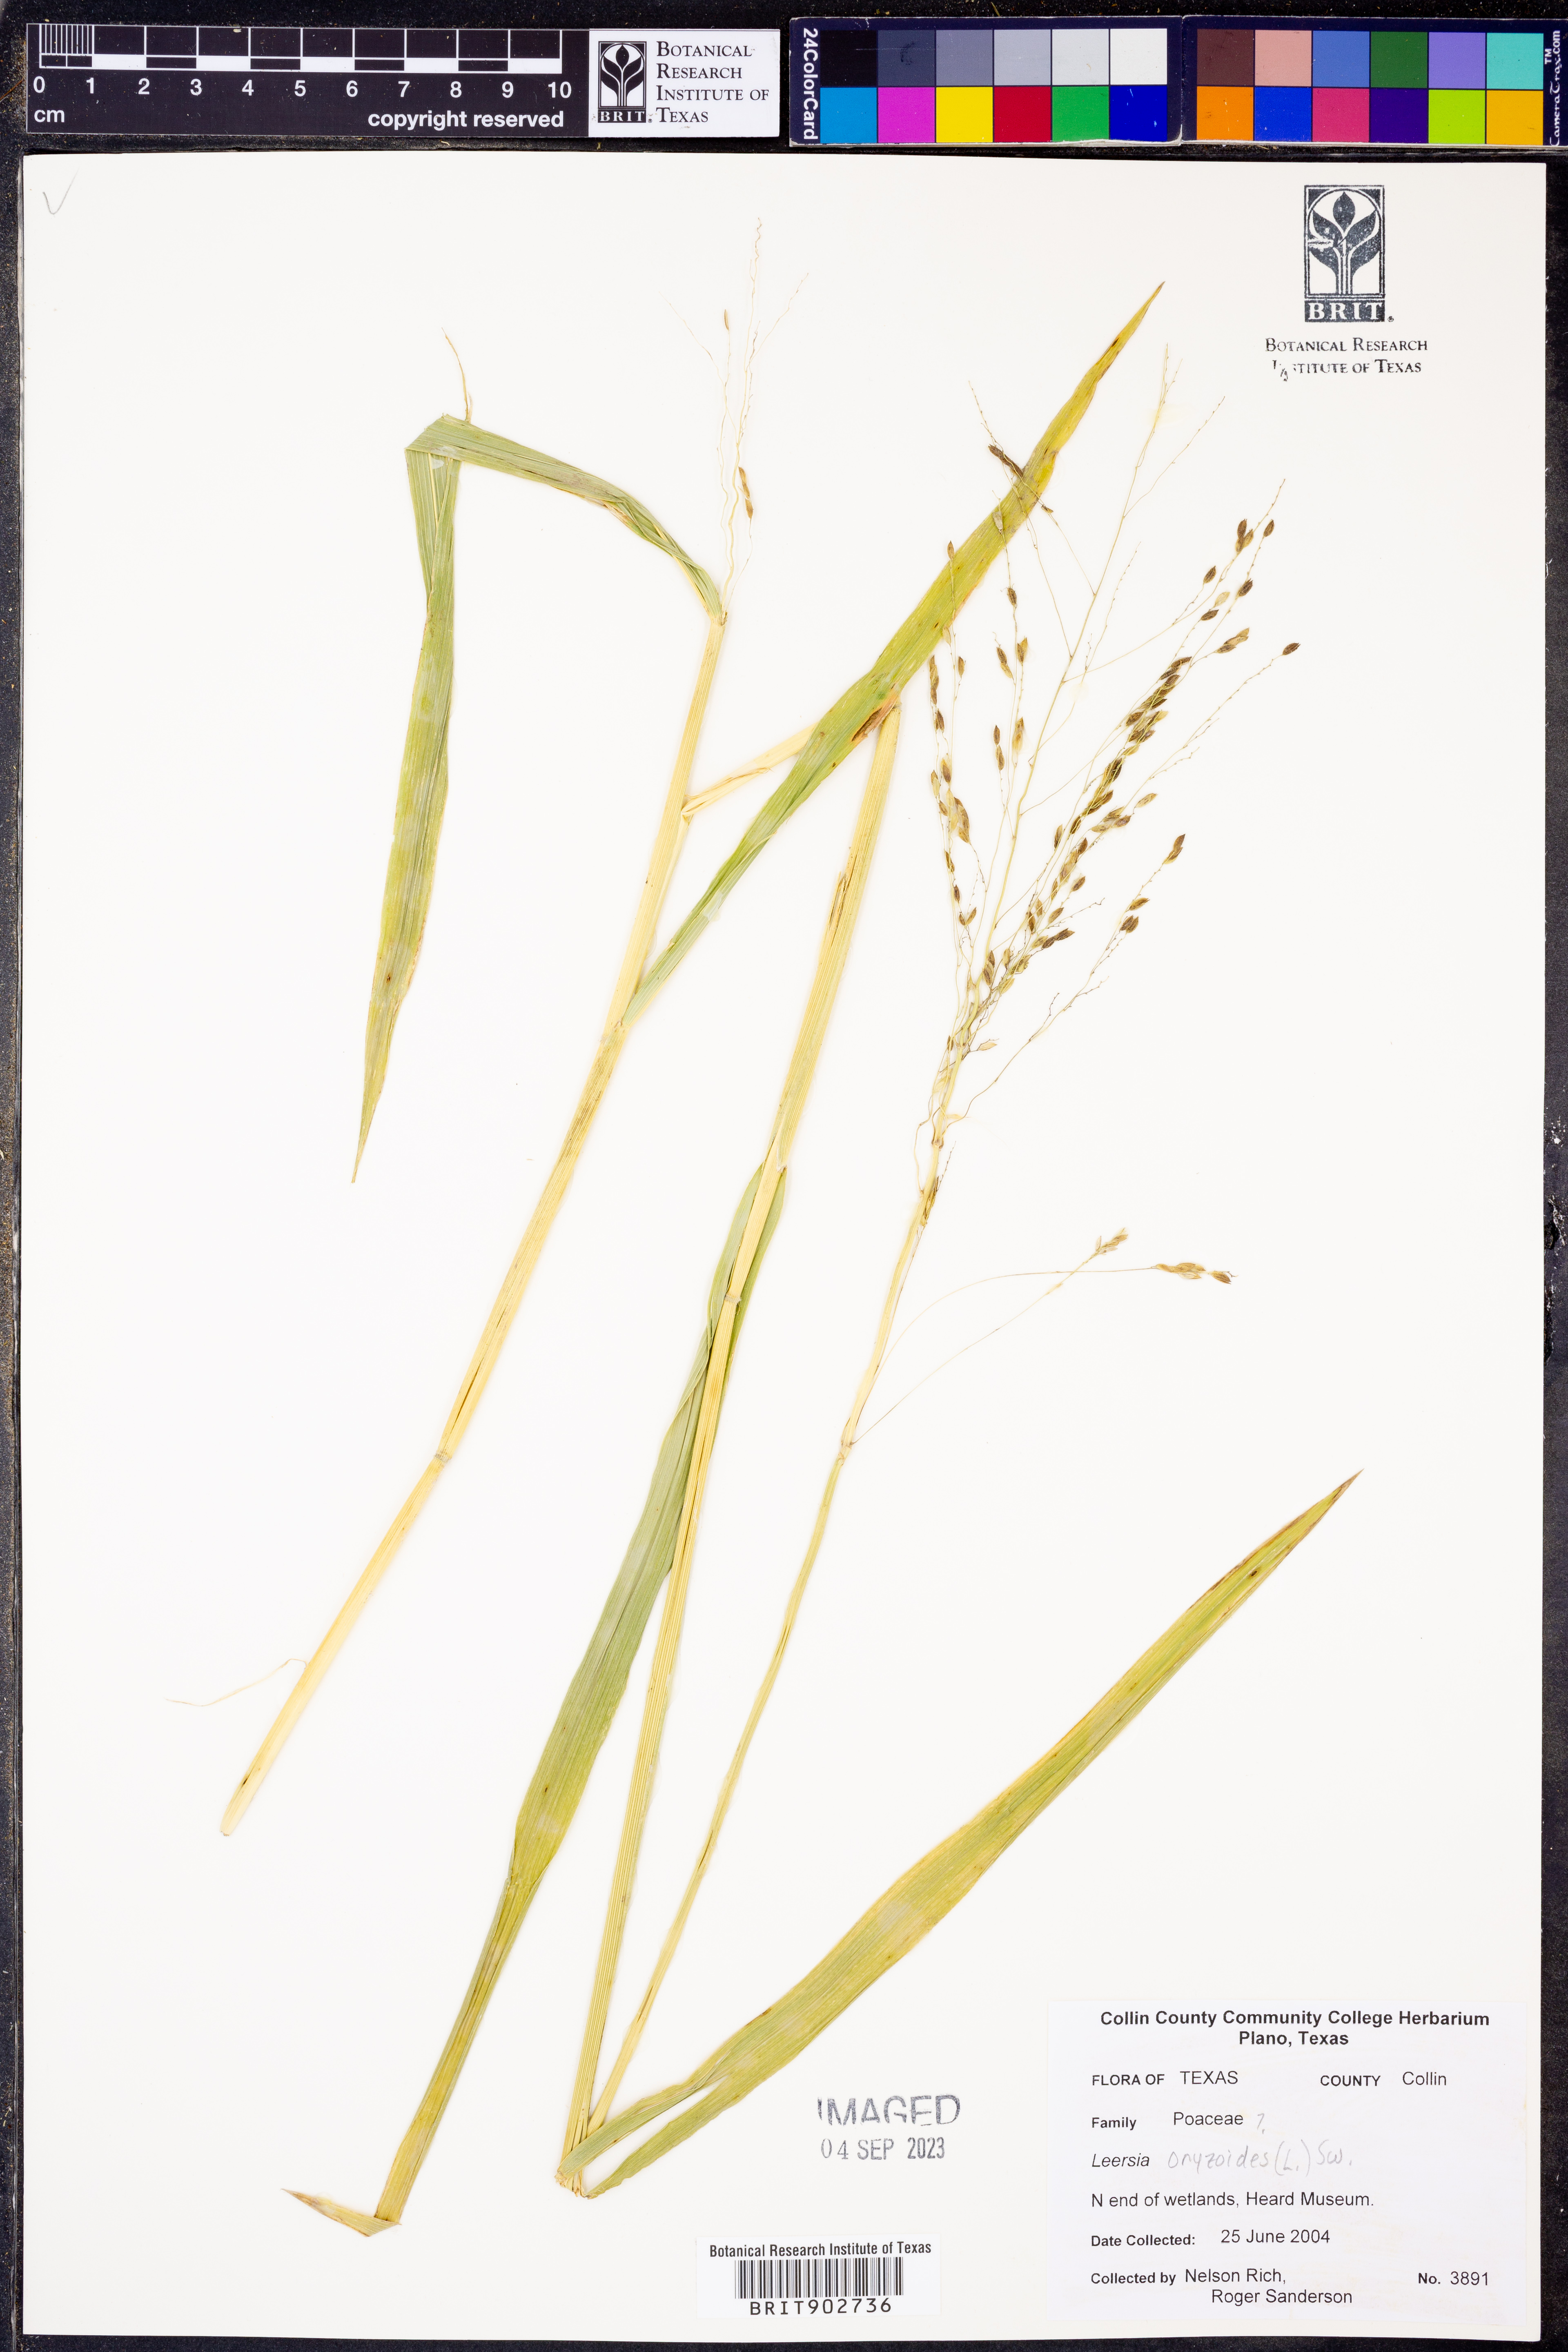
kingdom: Plantae
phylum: Tracheophyta
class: Liliopsida
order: Poales
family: Poaceae
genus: Leersia
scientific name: Leersia oryzoides
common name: Cut-grass
